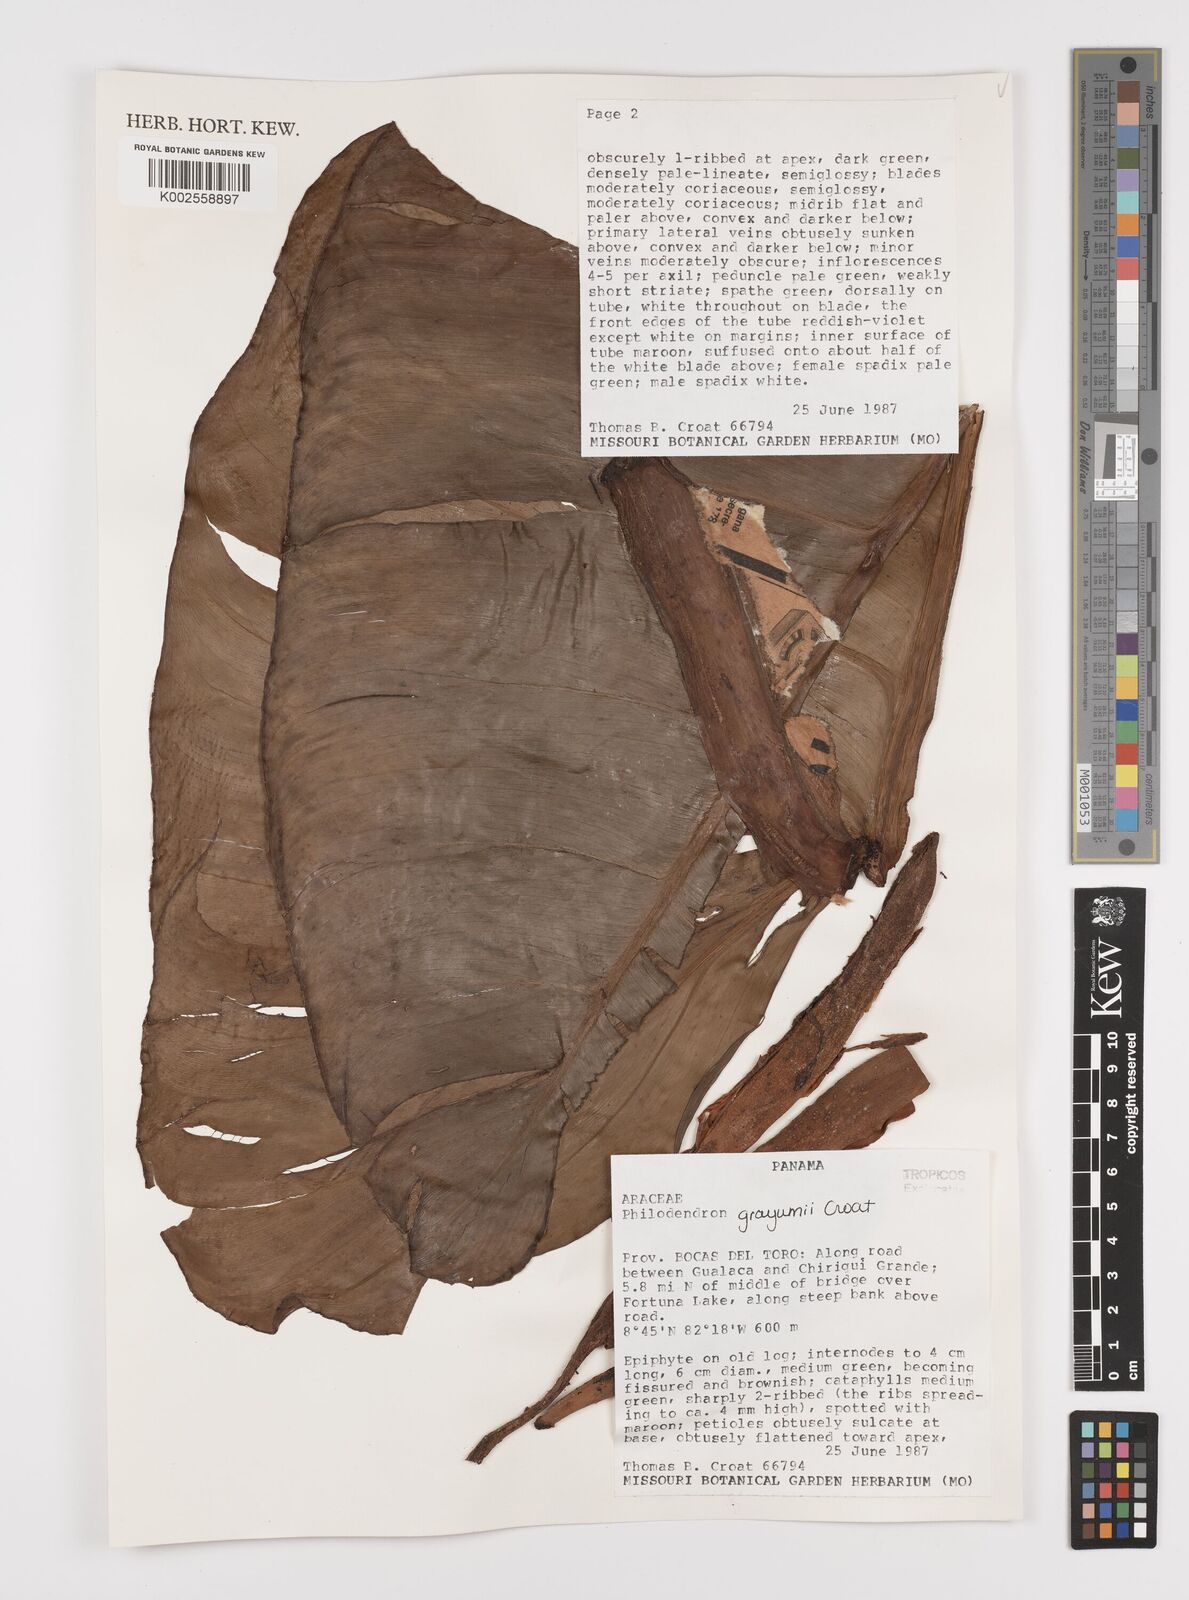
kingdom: Plantae
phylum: Tracheophyta
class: Liliopsida
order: Alismatales
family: Araceae
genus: Philodendron
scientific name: Philodendron grayumii
